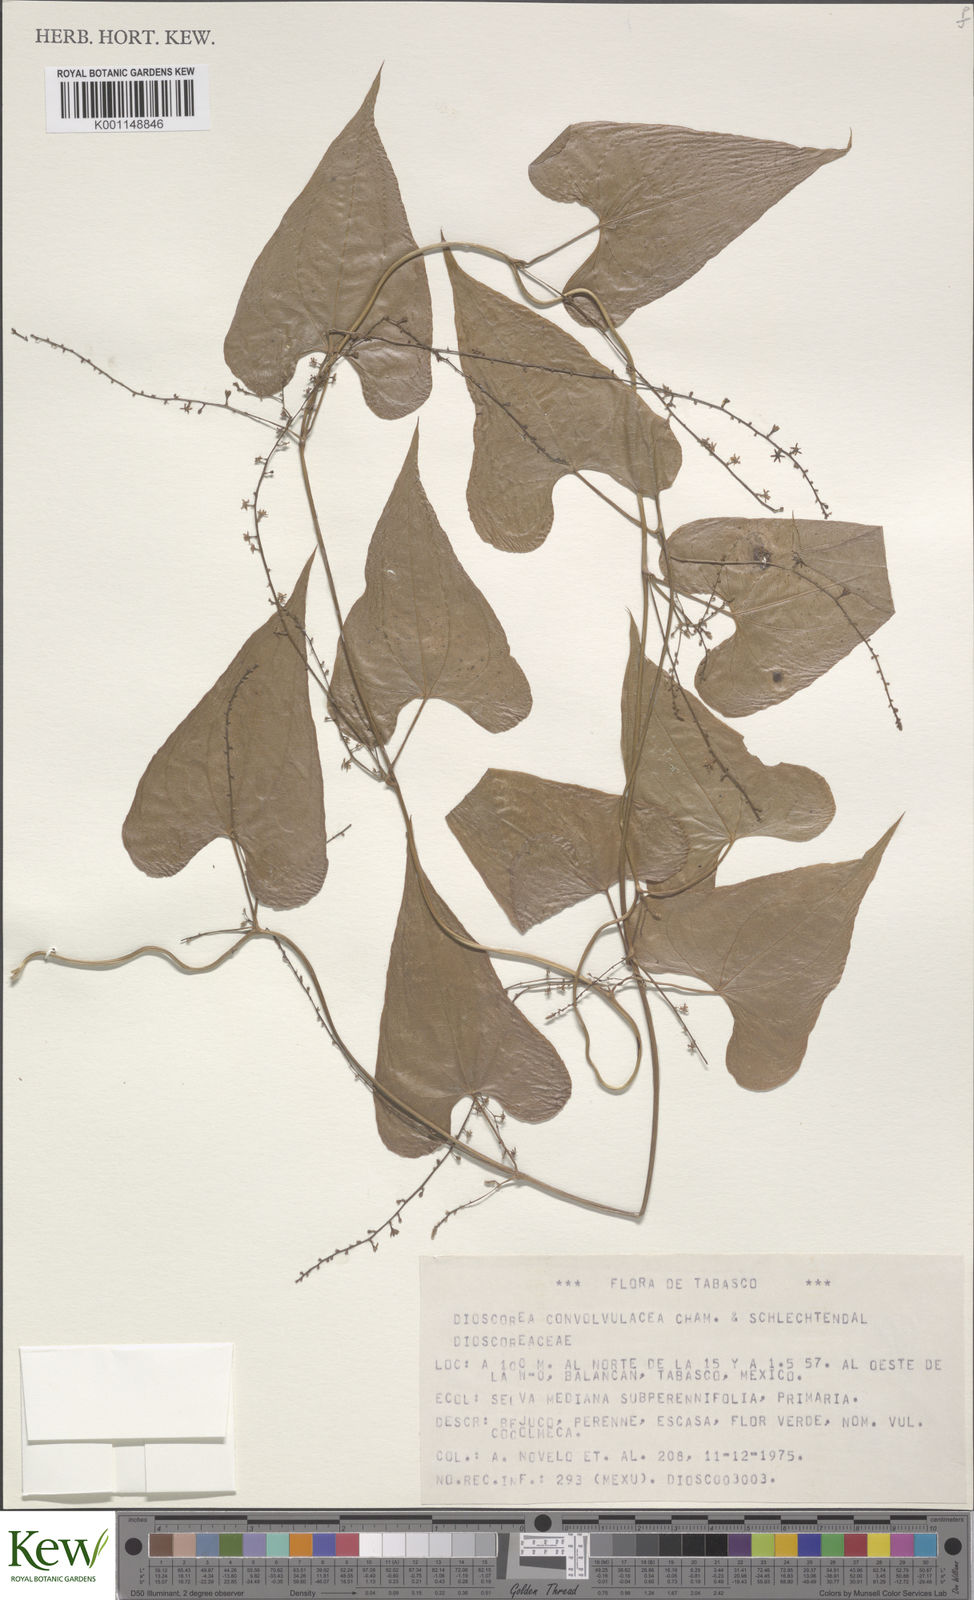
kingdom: Plantae
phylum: Tracheophyta
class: Liliopsida
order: Dioscoreales
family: Dioscoreaceae
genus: Dioscorea
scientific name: Dioscorea convolvulacea
